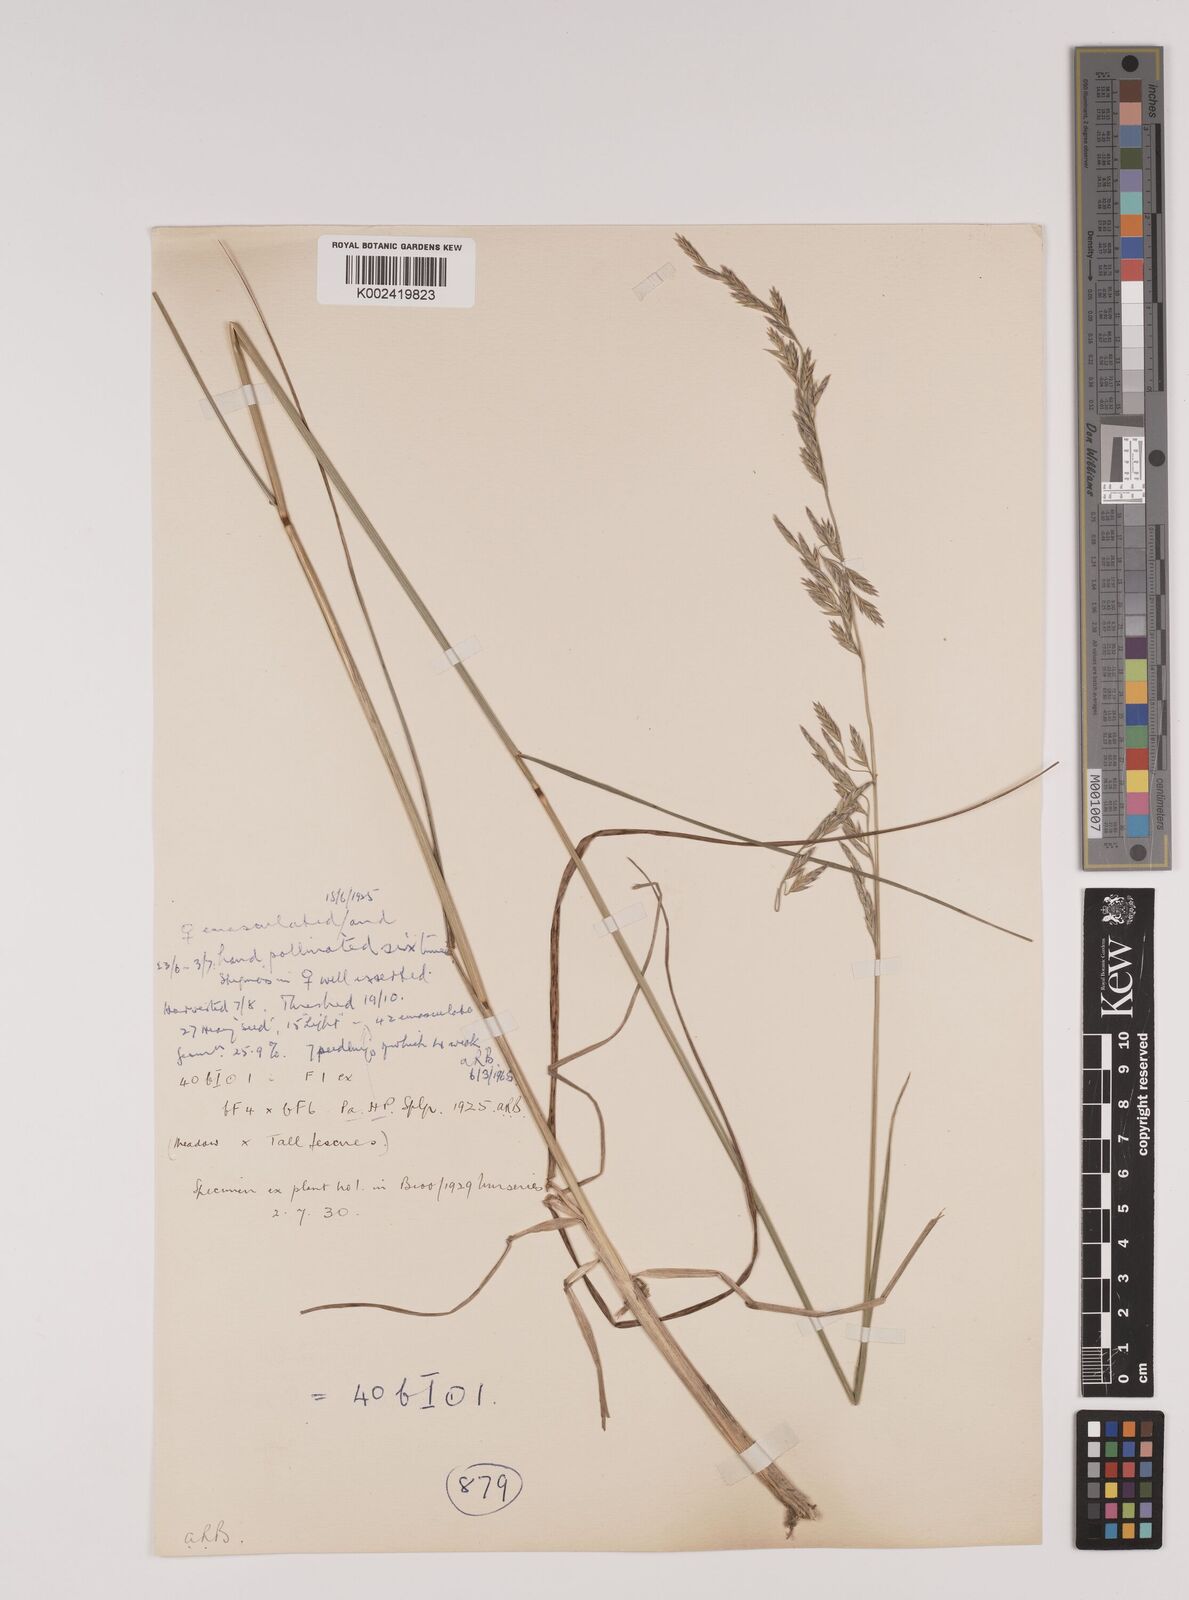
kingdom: Plantae
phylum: Tracheophyta
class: Liliopsida
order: Poales
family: Poaceae
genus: Festuca
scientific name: Festuca rubra
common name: Red fescue
